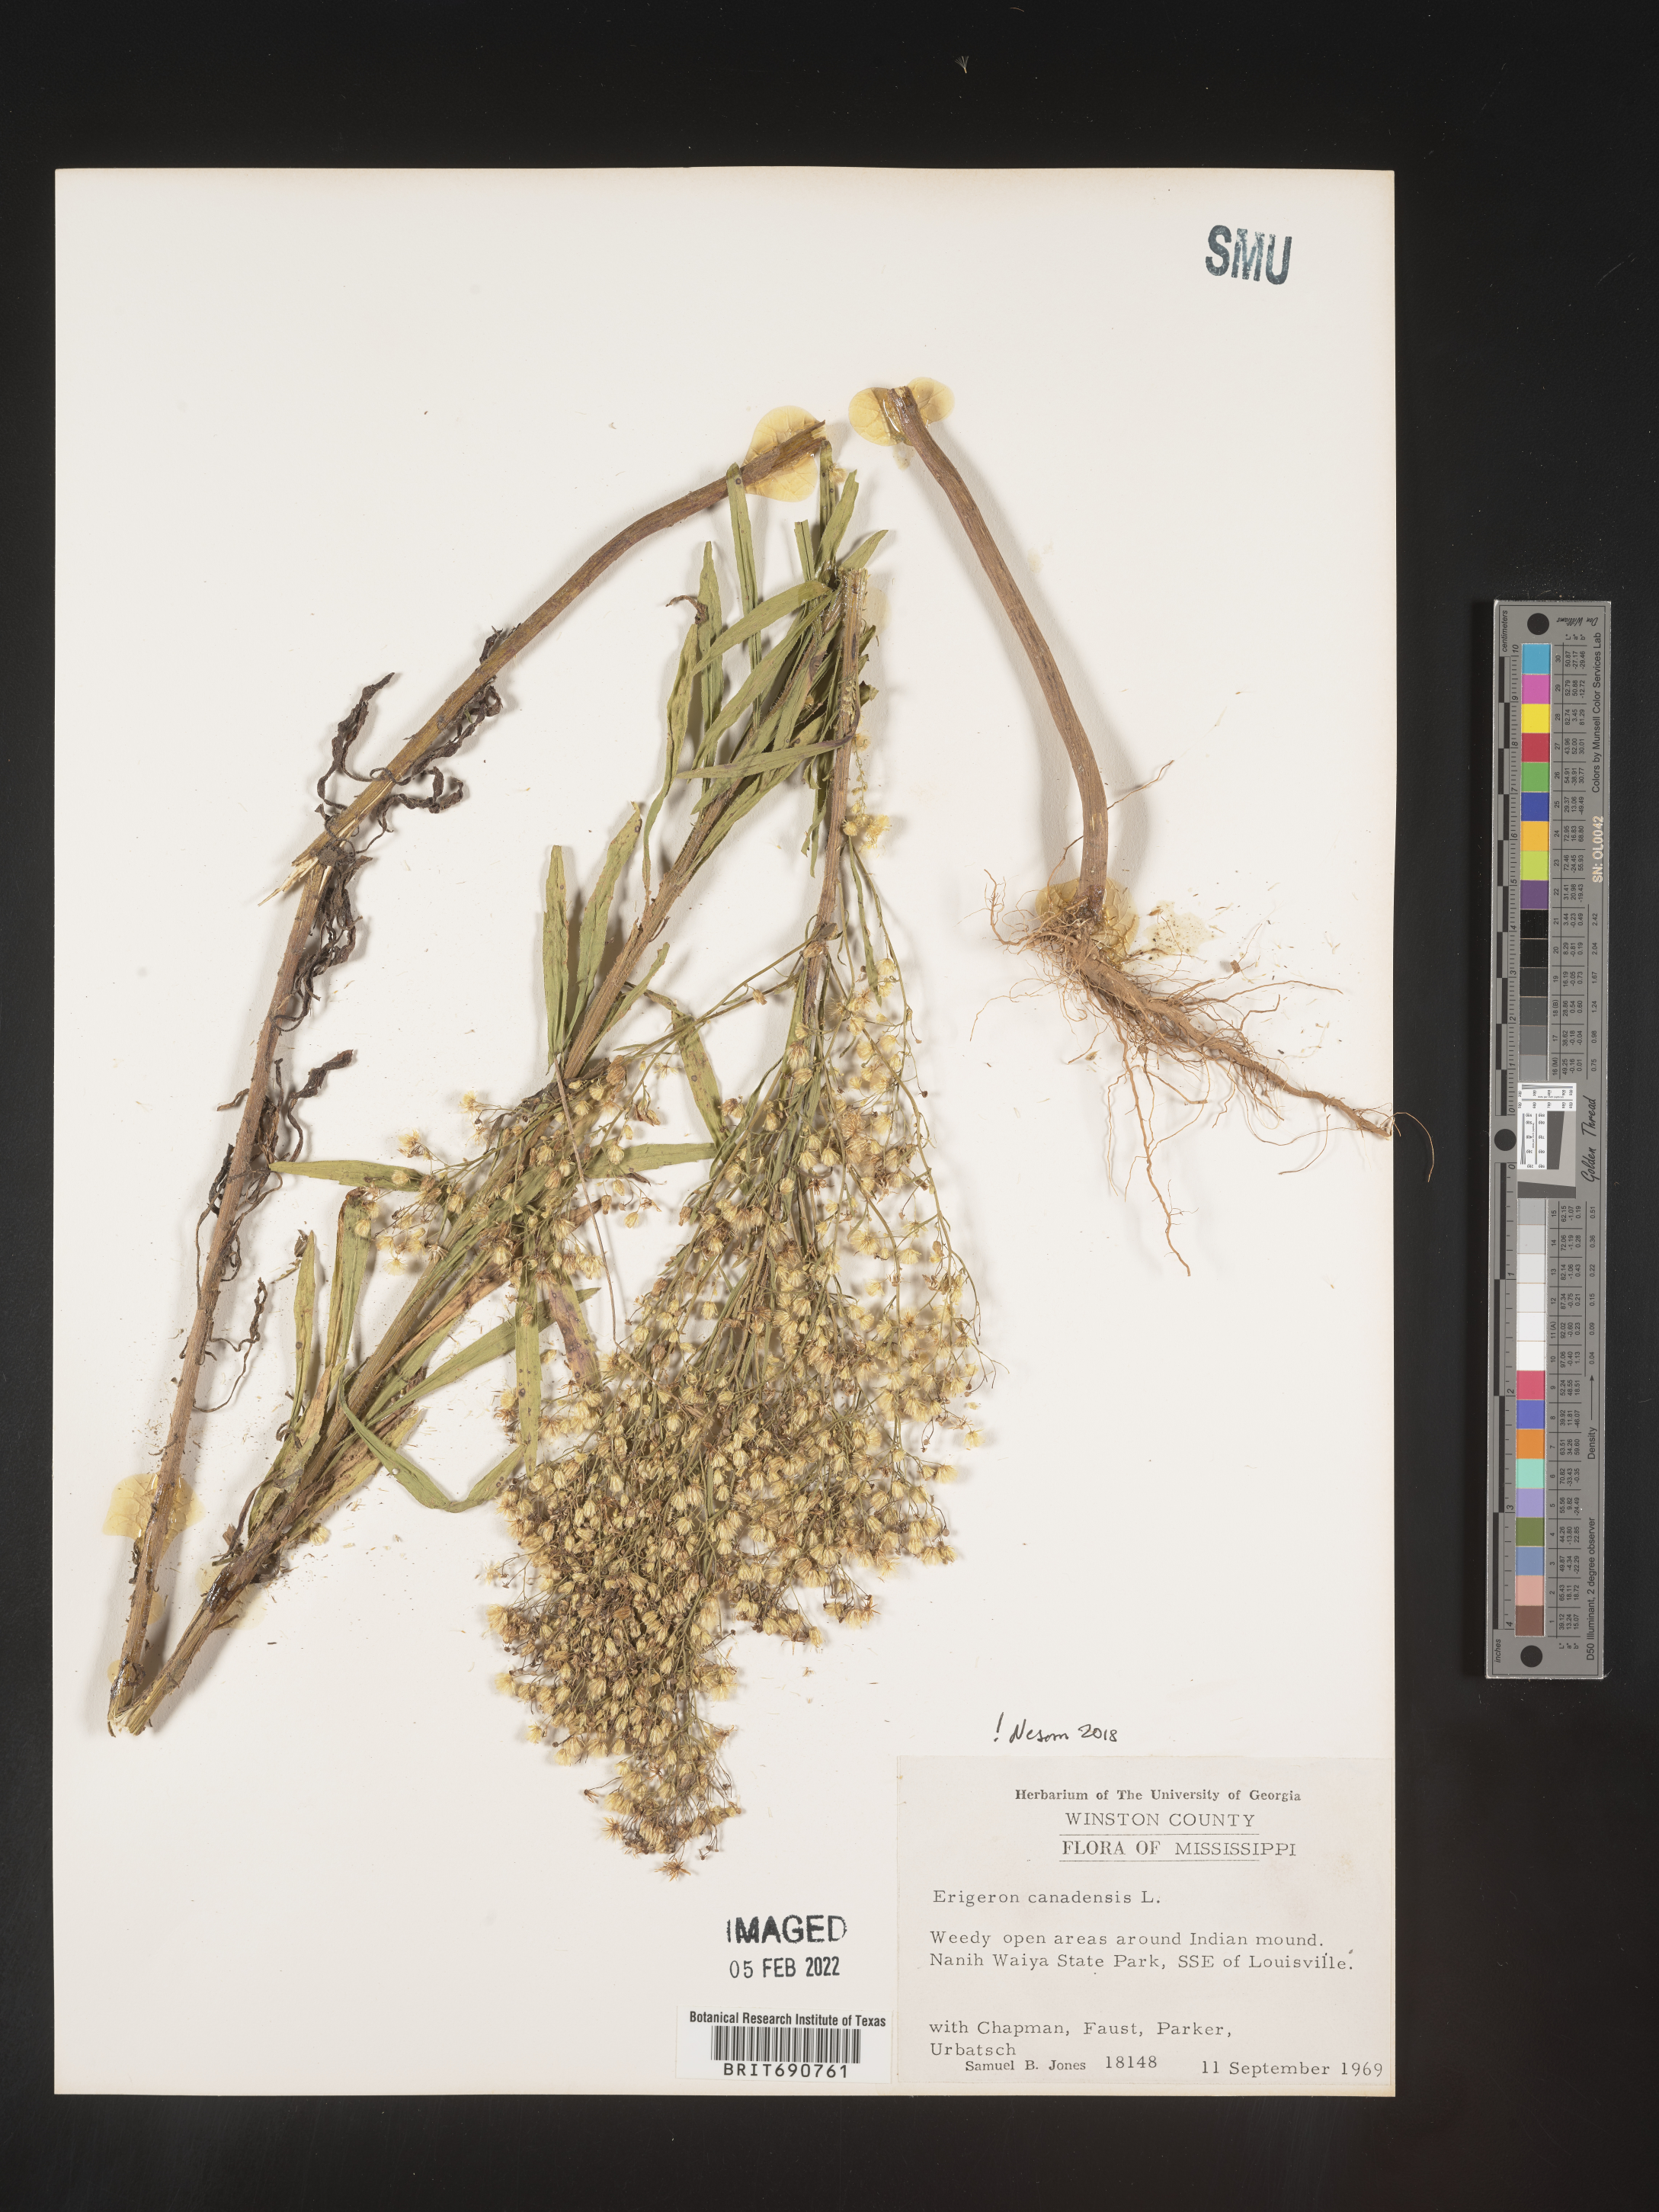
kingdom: Plantae
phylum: Tracheophyta
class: Magnoliopsida
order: Asterales
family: Asteraceae
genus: Erigeron
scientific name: Erigeron canadensis
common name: Canadian fleabane
